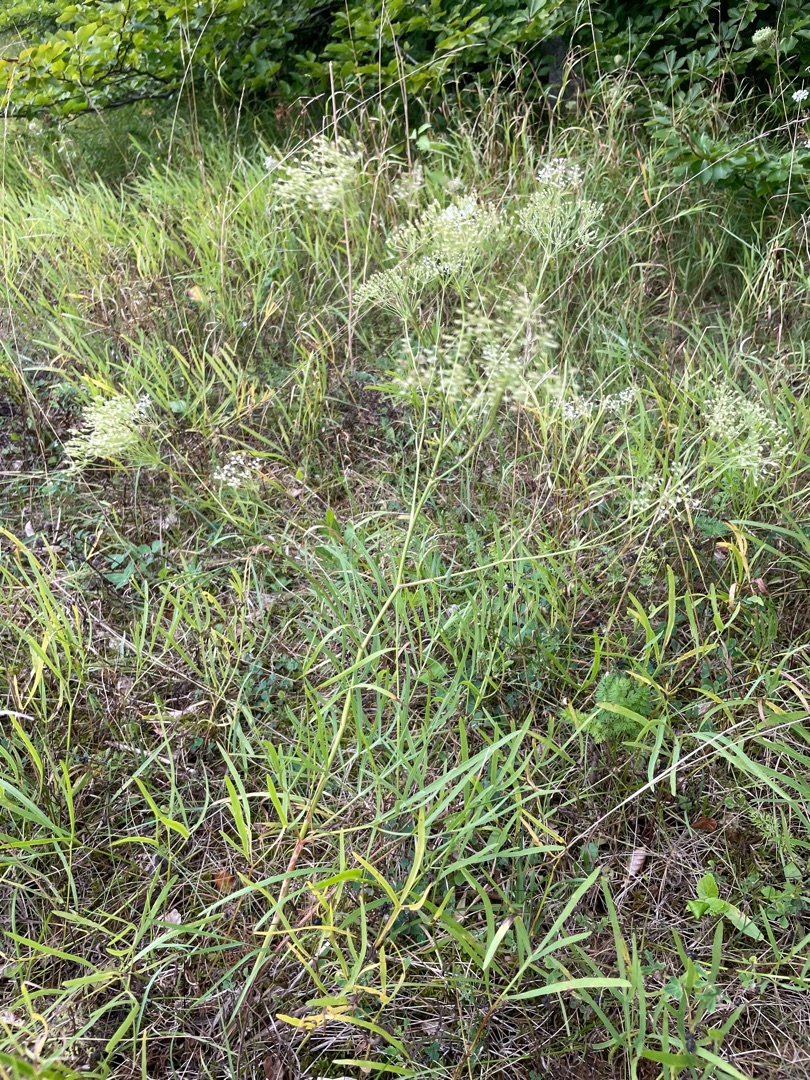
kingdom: Plantae
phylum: Tracheophyta
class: Magnoliopsida
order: Apiales
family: Apiaceae
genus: Falcaria
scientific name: Falcaria vulgaris
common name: Seglblad
